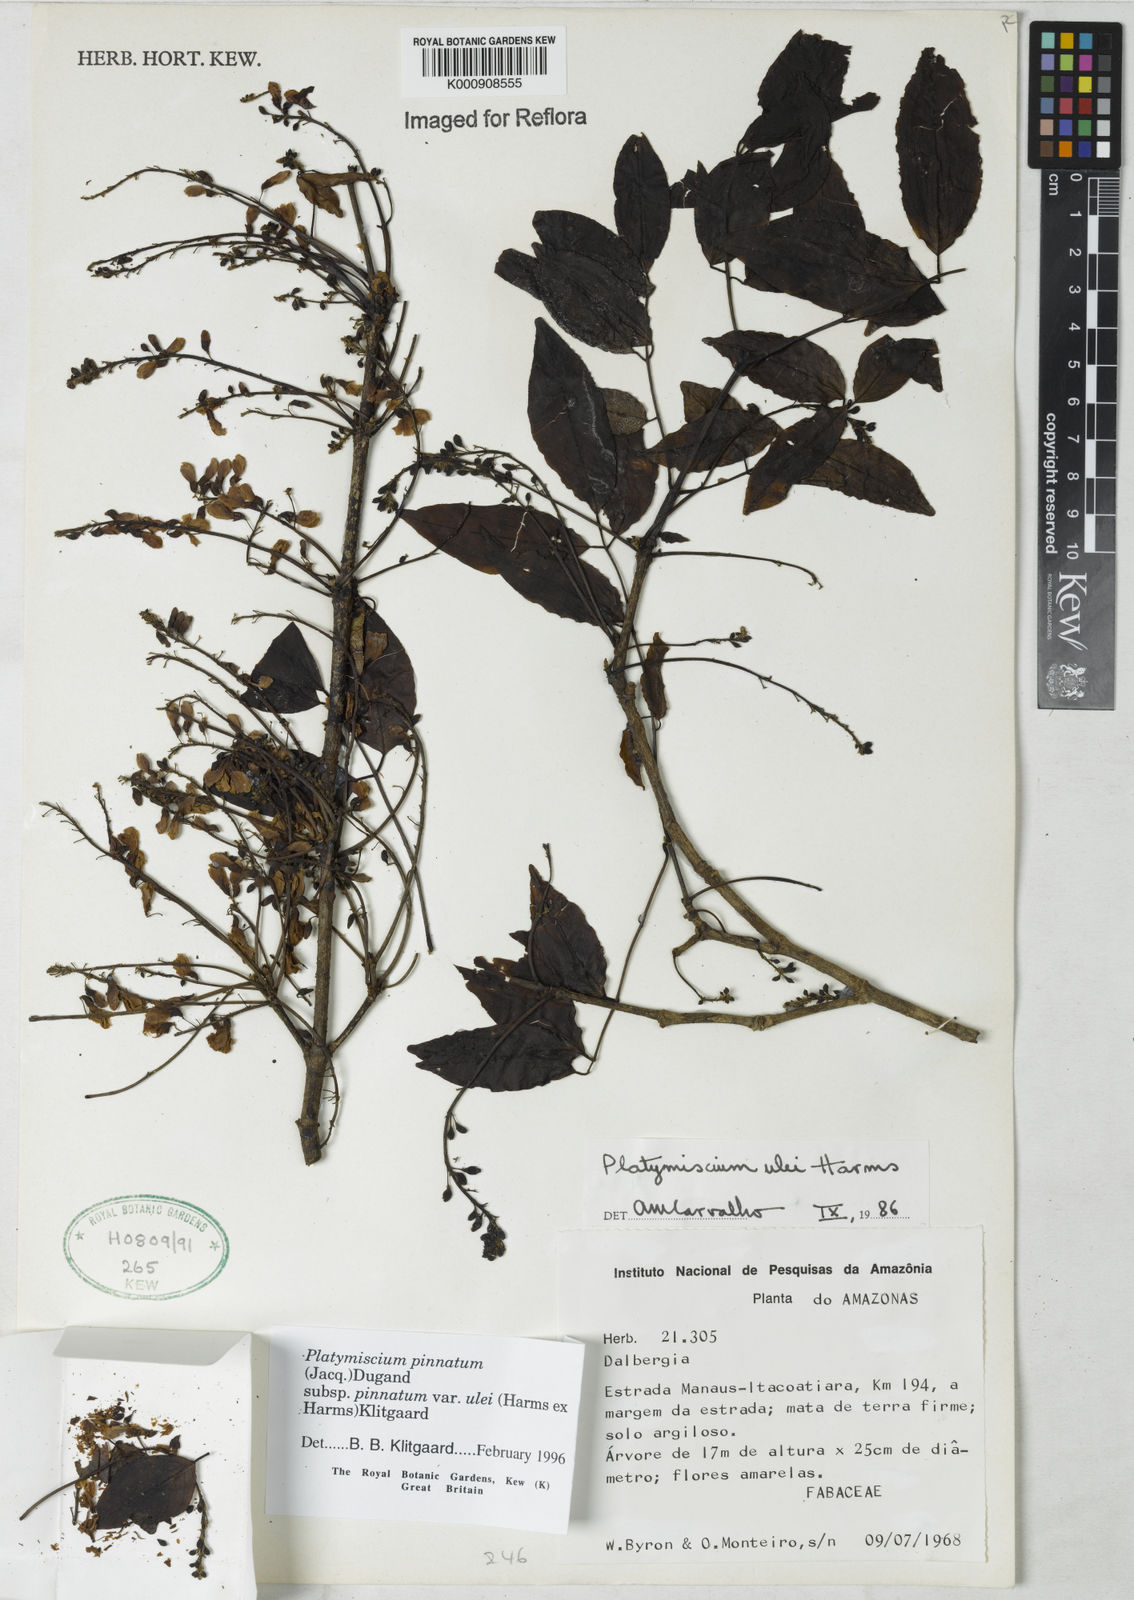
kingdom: Plantae
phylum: Tracheophyta
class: Magnoliopsida
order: Fabales
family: Fabaceae
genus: Platymiscium
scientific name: Platymiscium pinnatum
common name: Panama redwood
